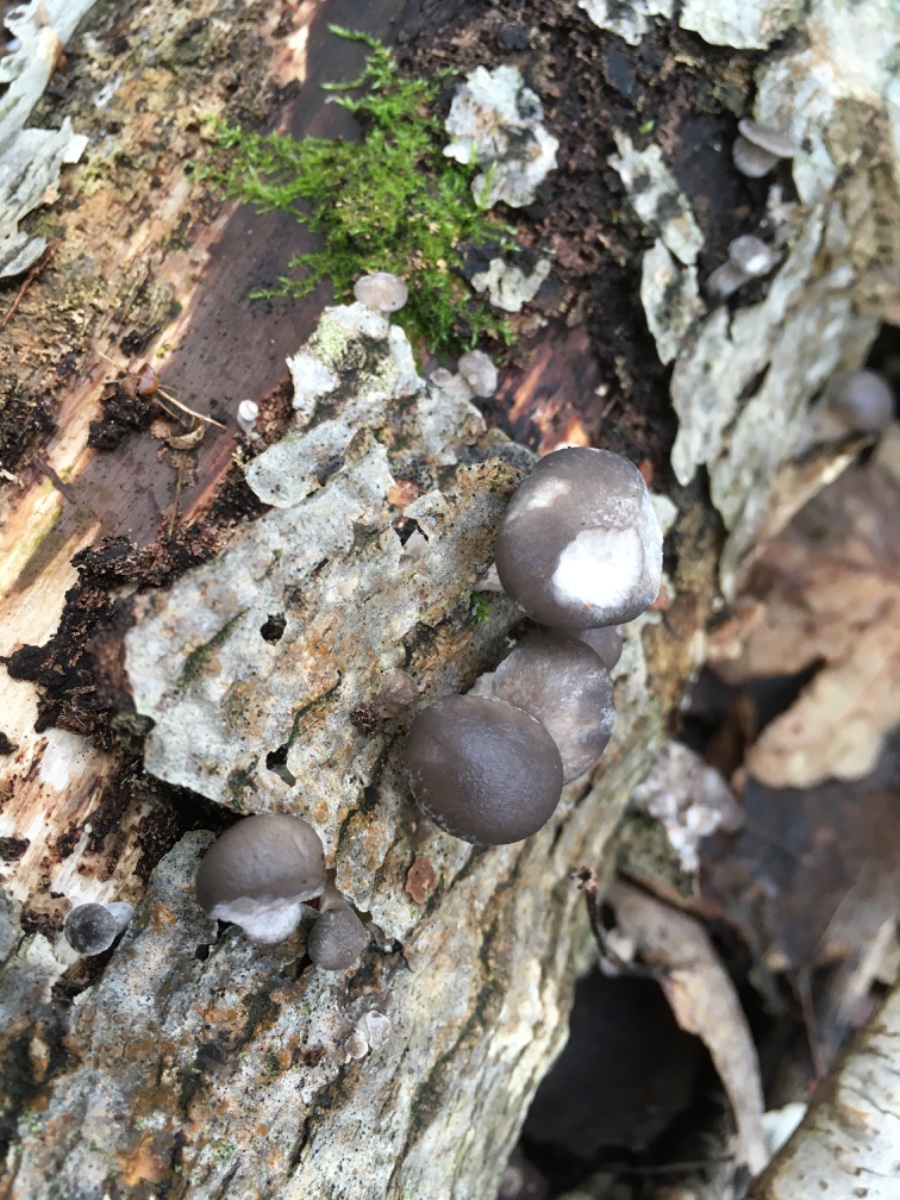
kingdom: Fungi
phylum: Basidiomycota
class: Agaricomycetes
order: Agaricales
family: Pleurotaceae
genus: Pleurotus
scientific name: Pleurotus ostreatus
